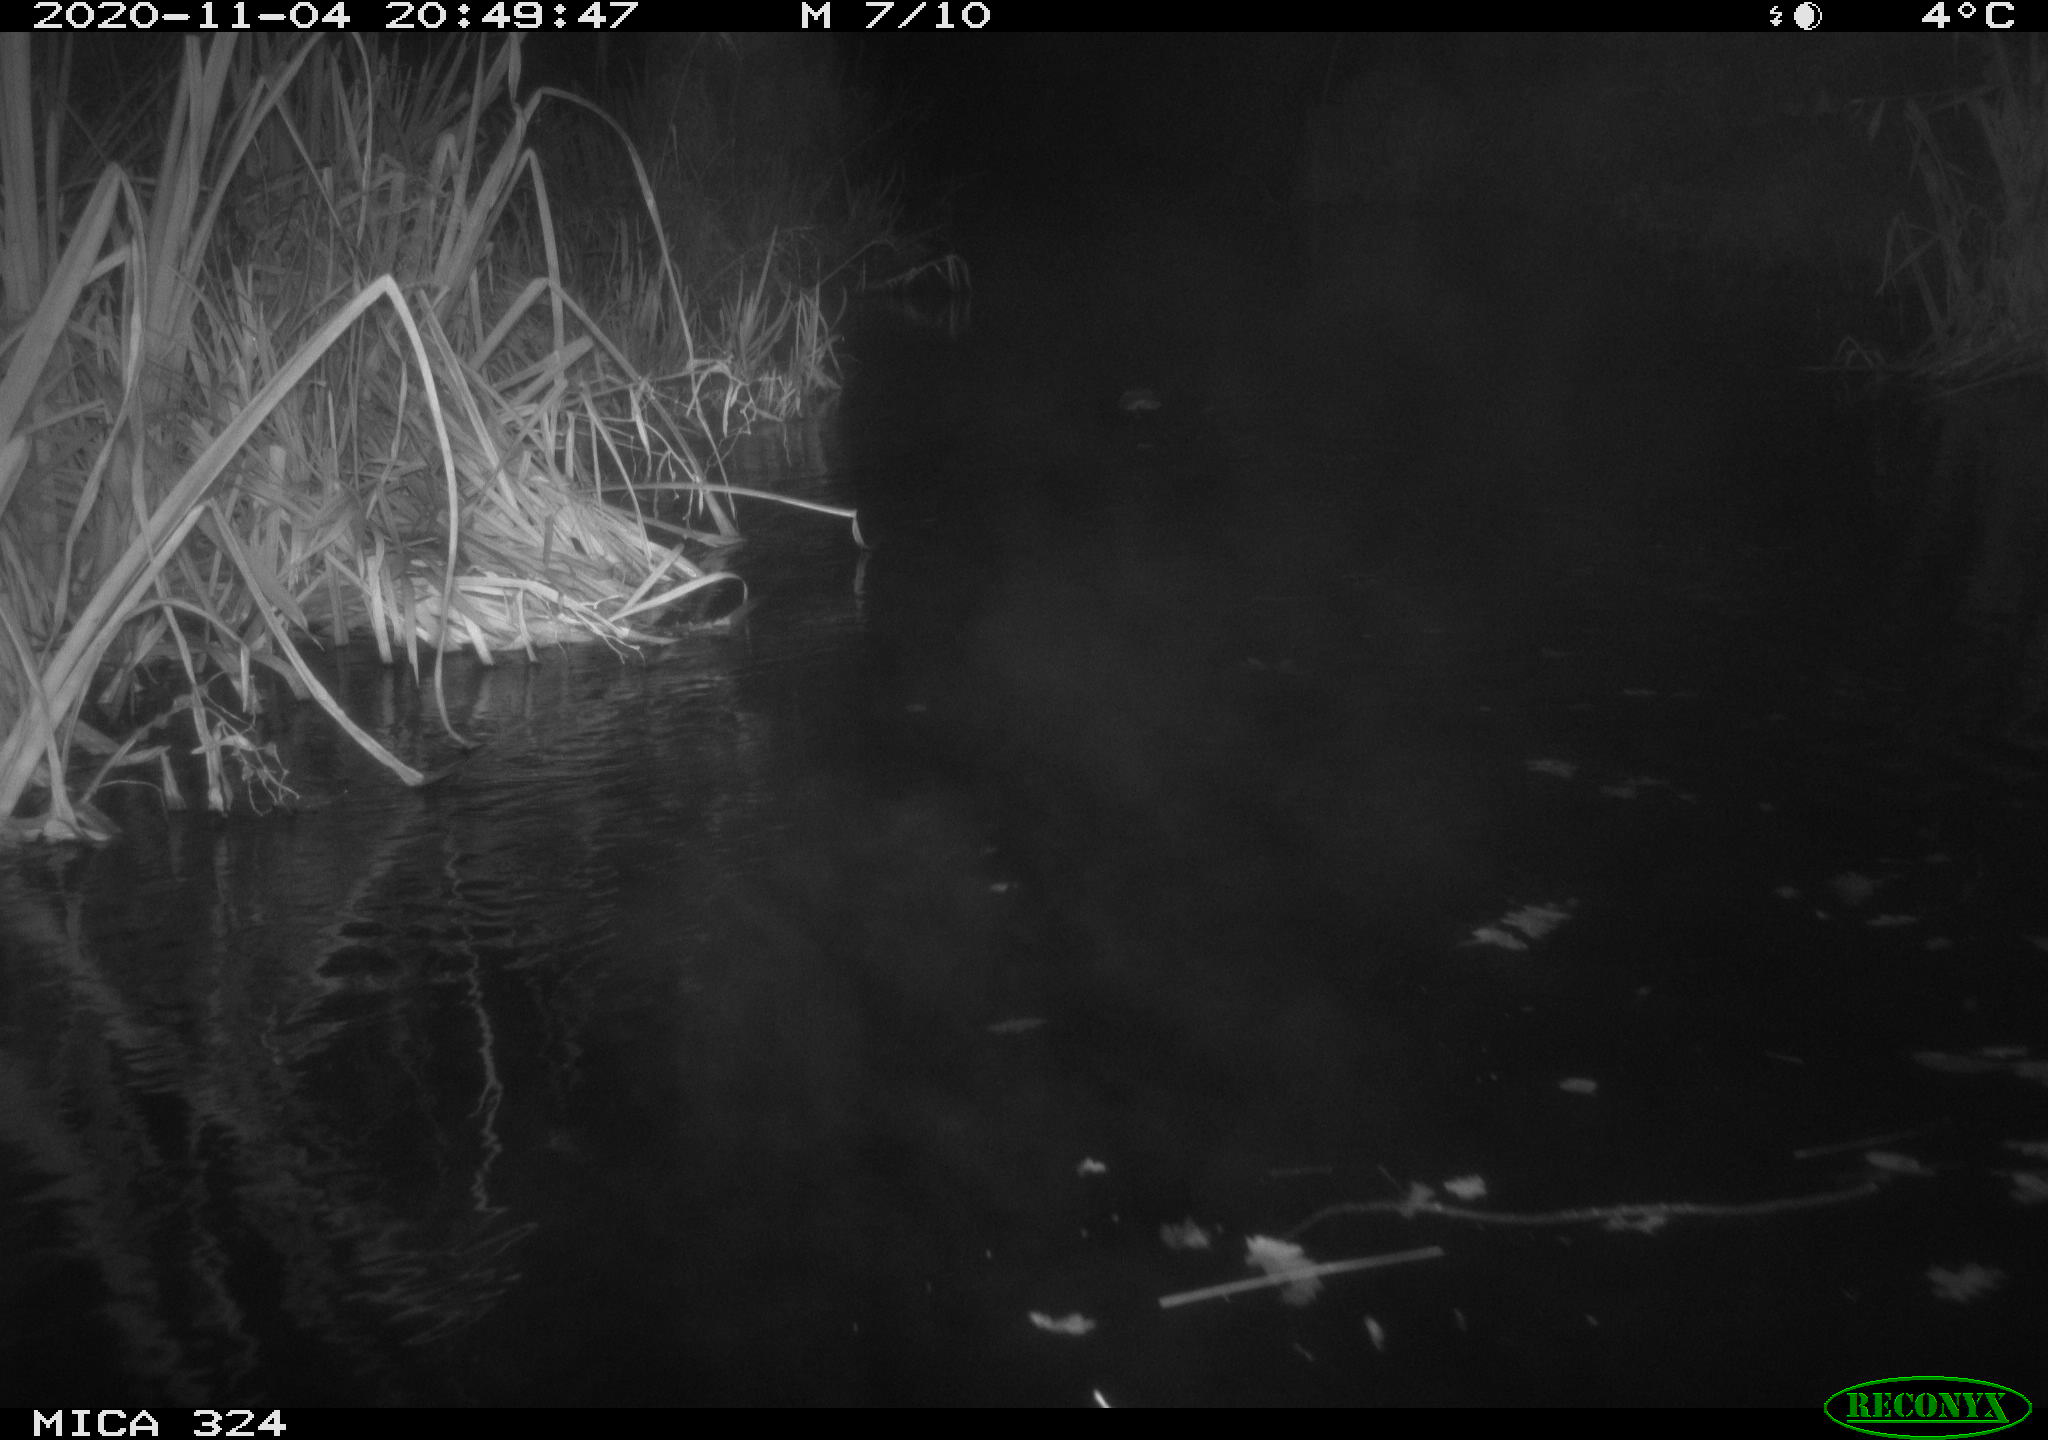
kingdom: Animalia
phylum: Chordata
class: Mammalia
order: Rodentia
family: Cricetidae
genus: Ondatra
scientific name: Ondatra zibethicus
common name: Muskrat
